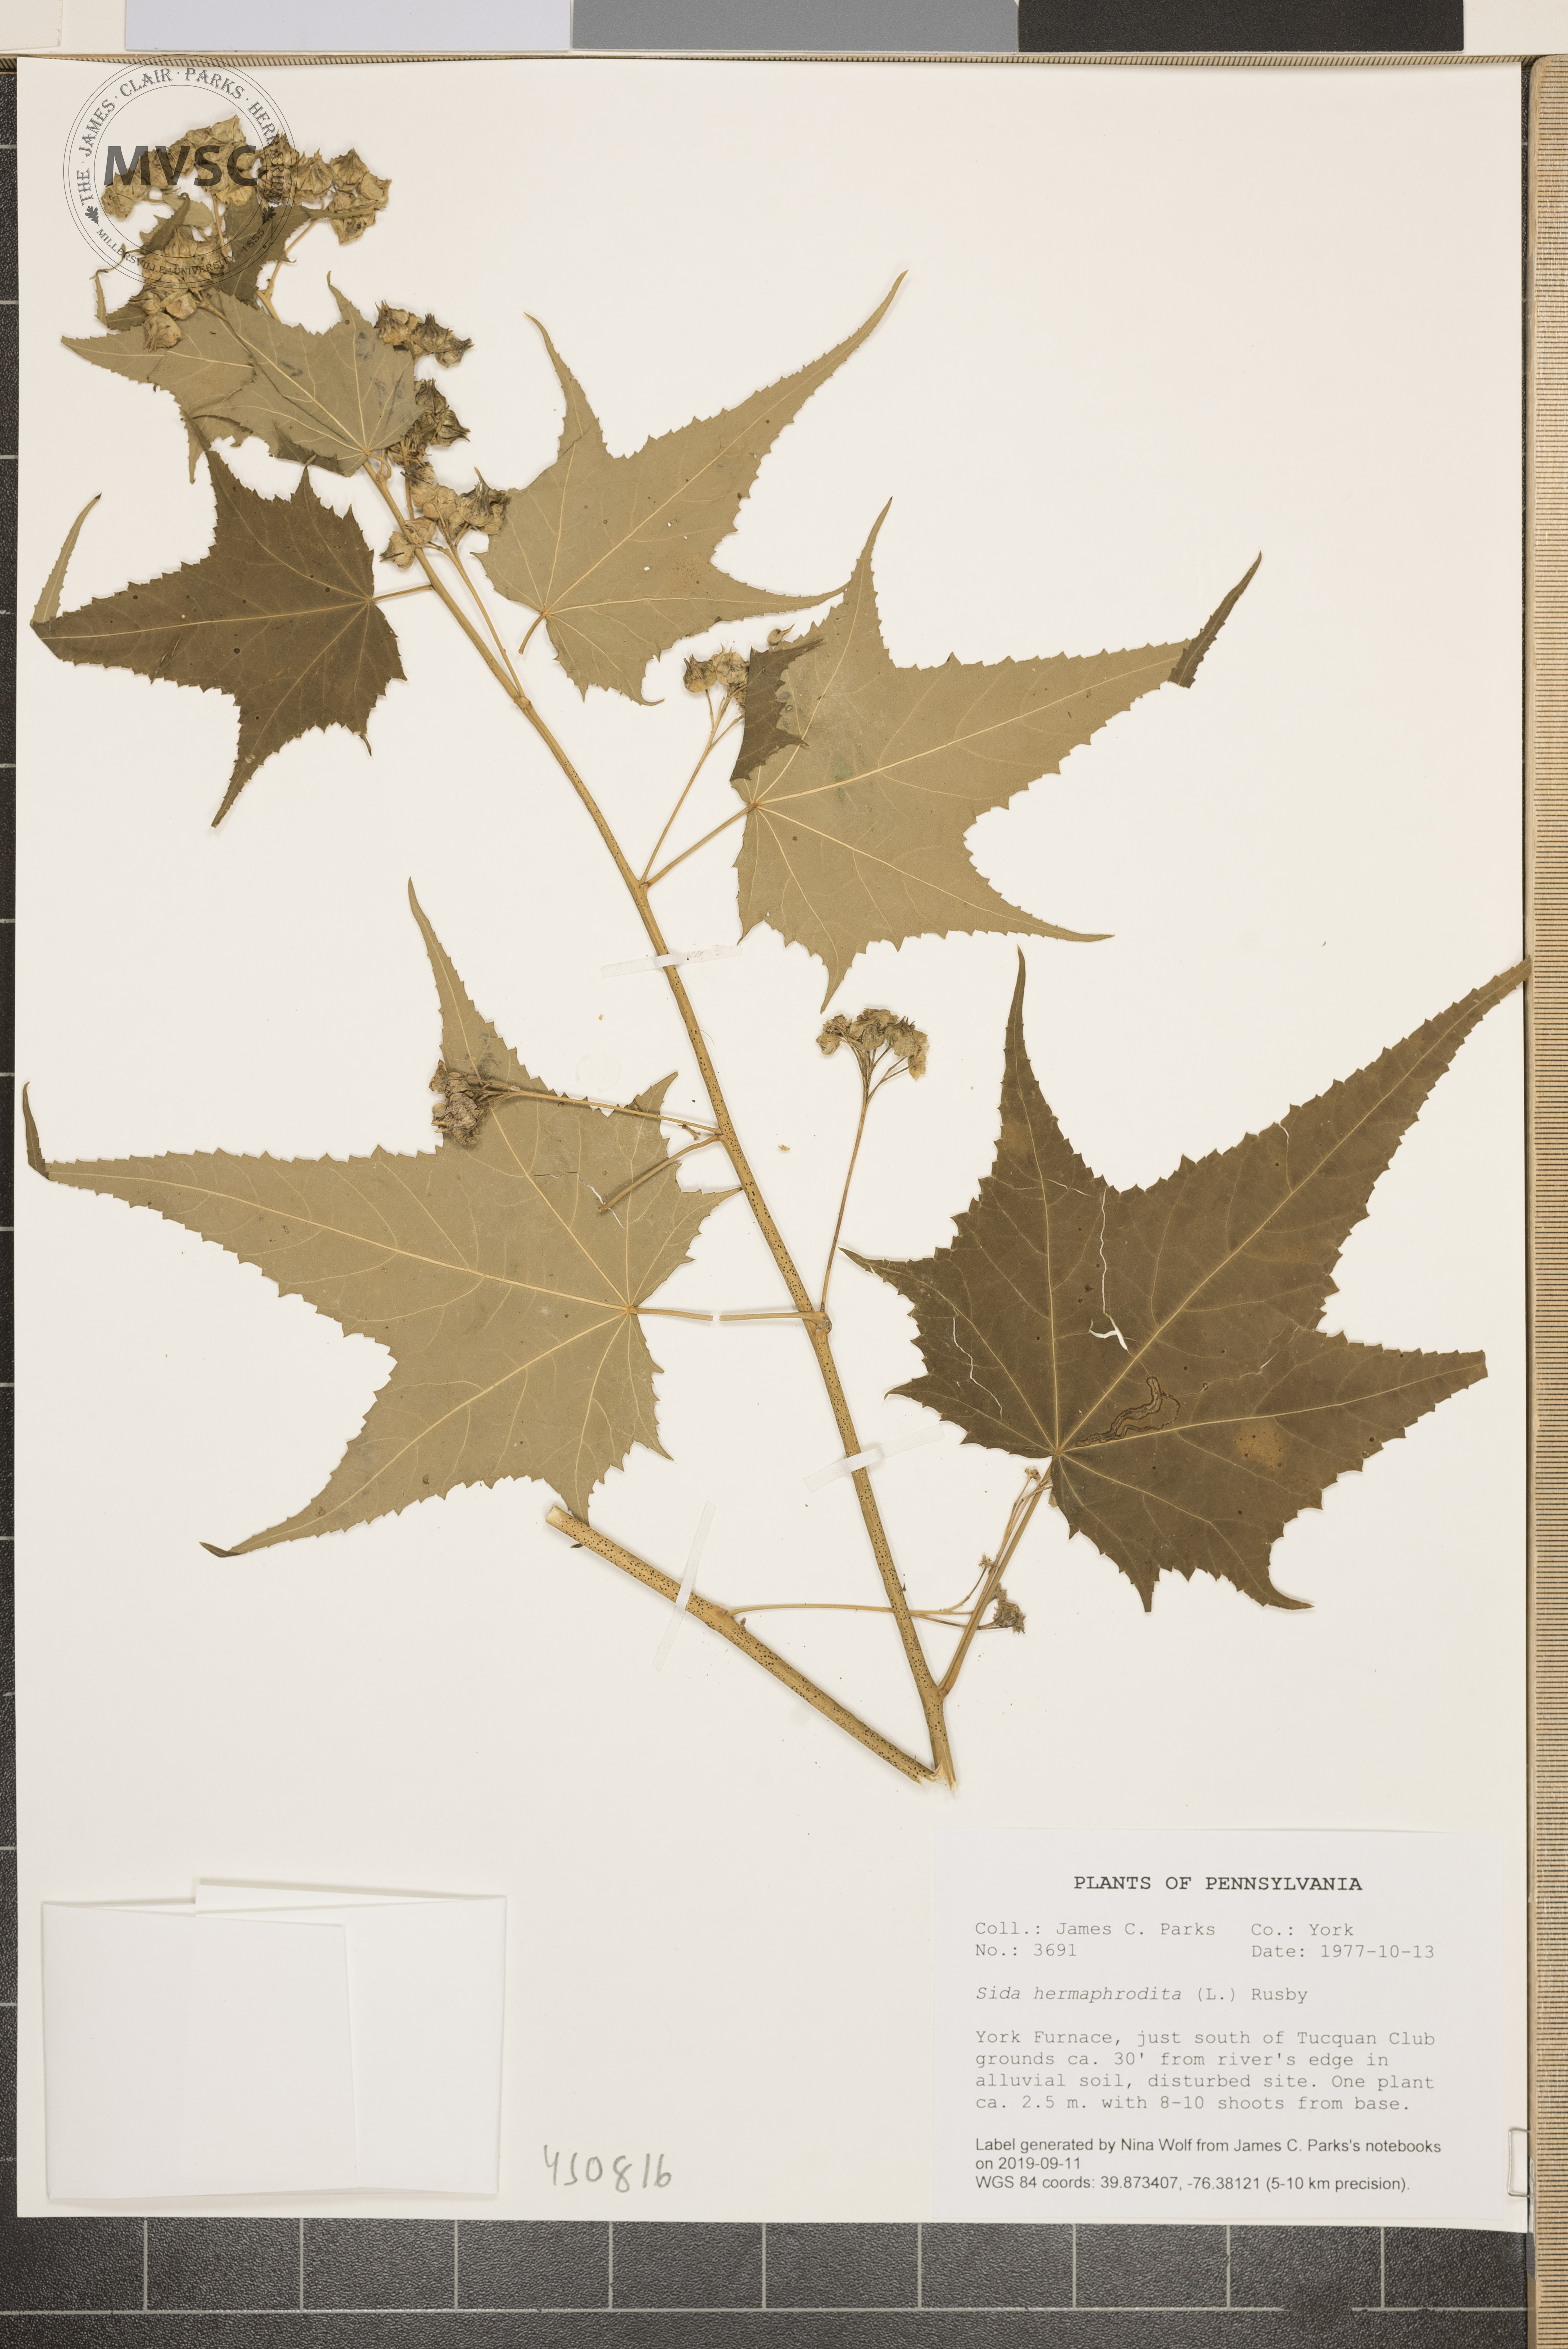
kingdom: Plantae
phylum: Tracheophyta
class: Magnoliopsida
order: Malvales
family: Malvaceae
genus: Ripariosida
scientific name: Ripariosida hermaphrodita
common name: Virginia fanpetals
